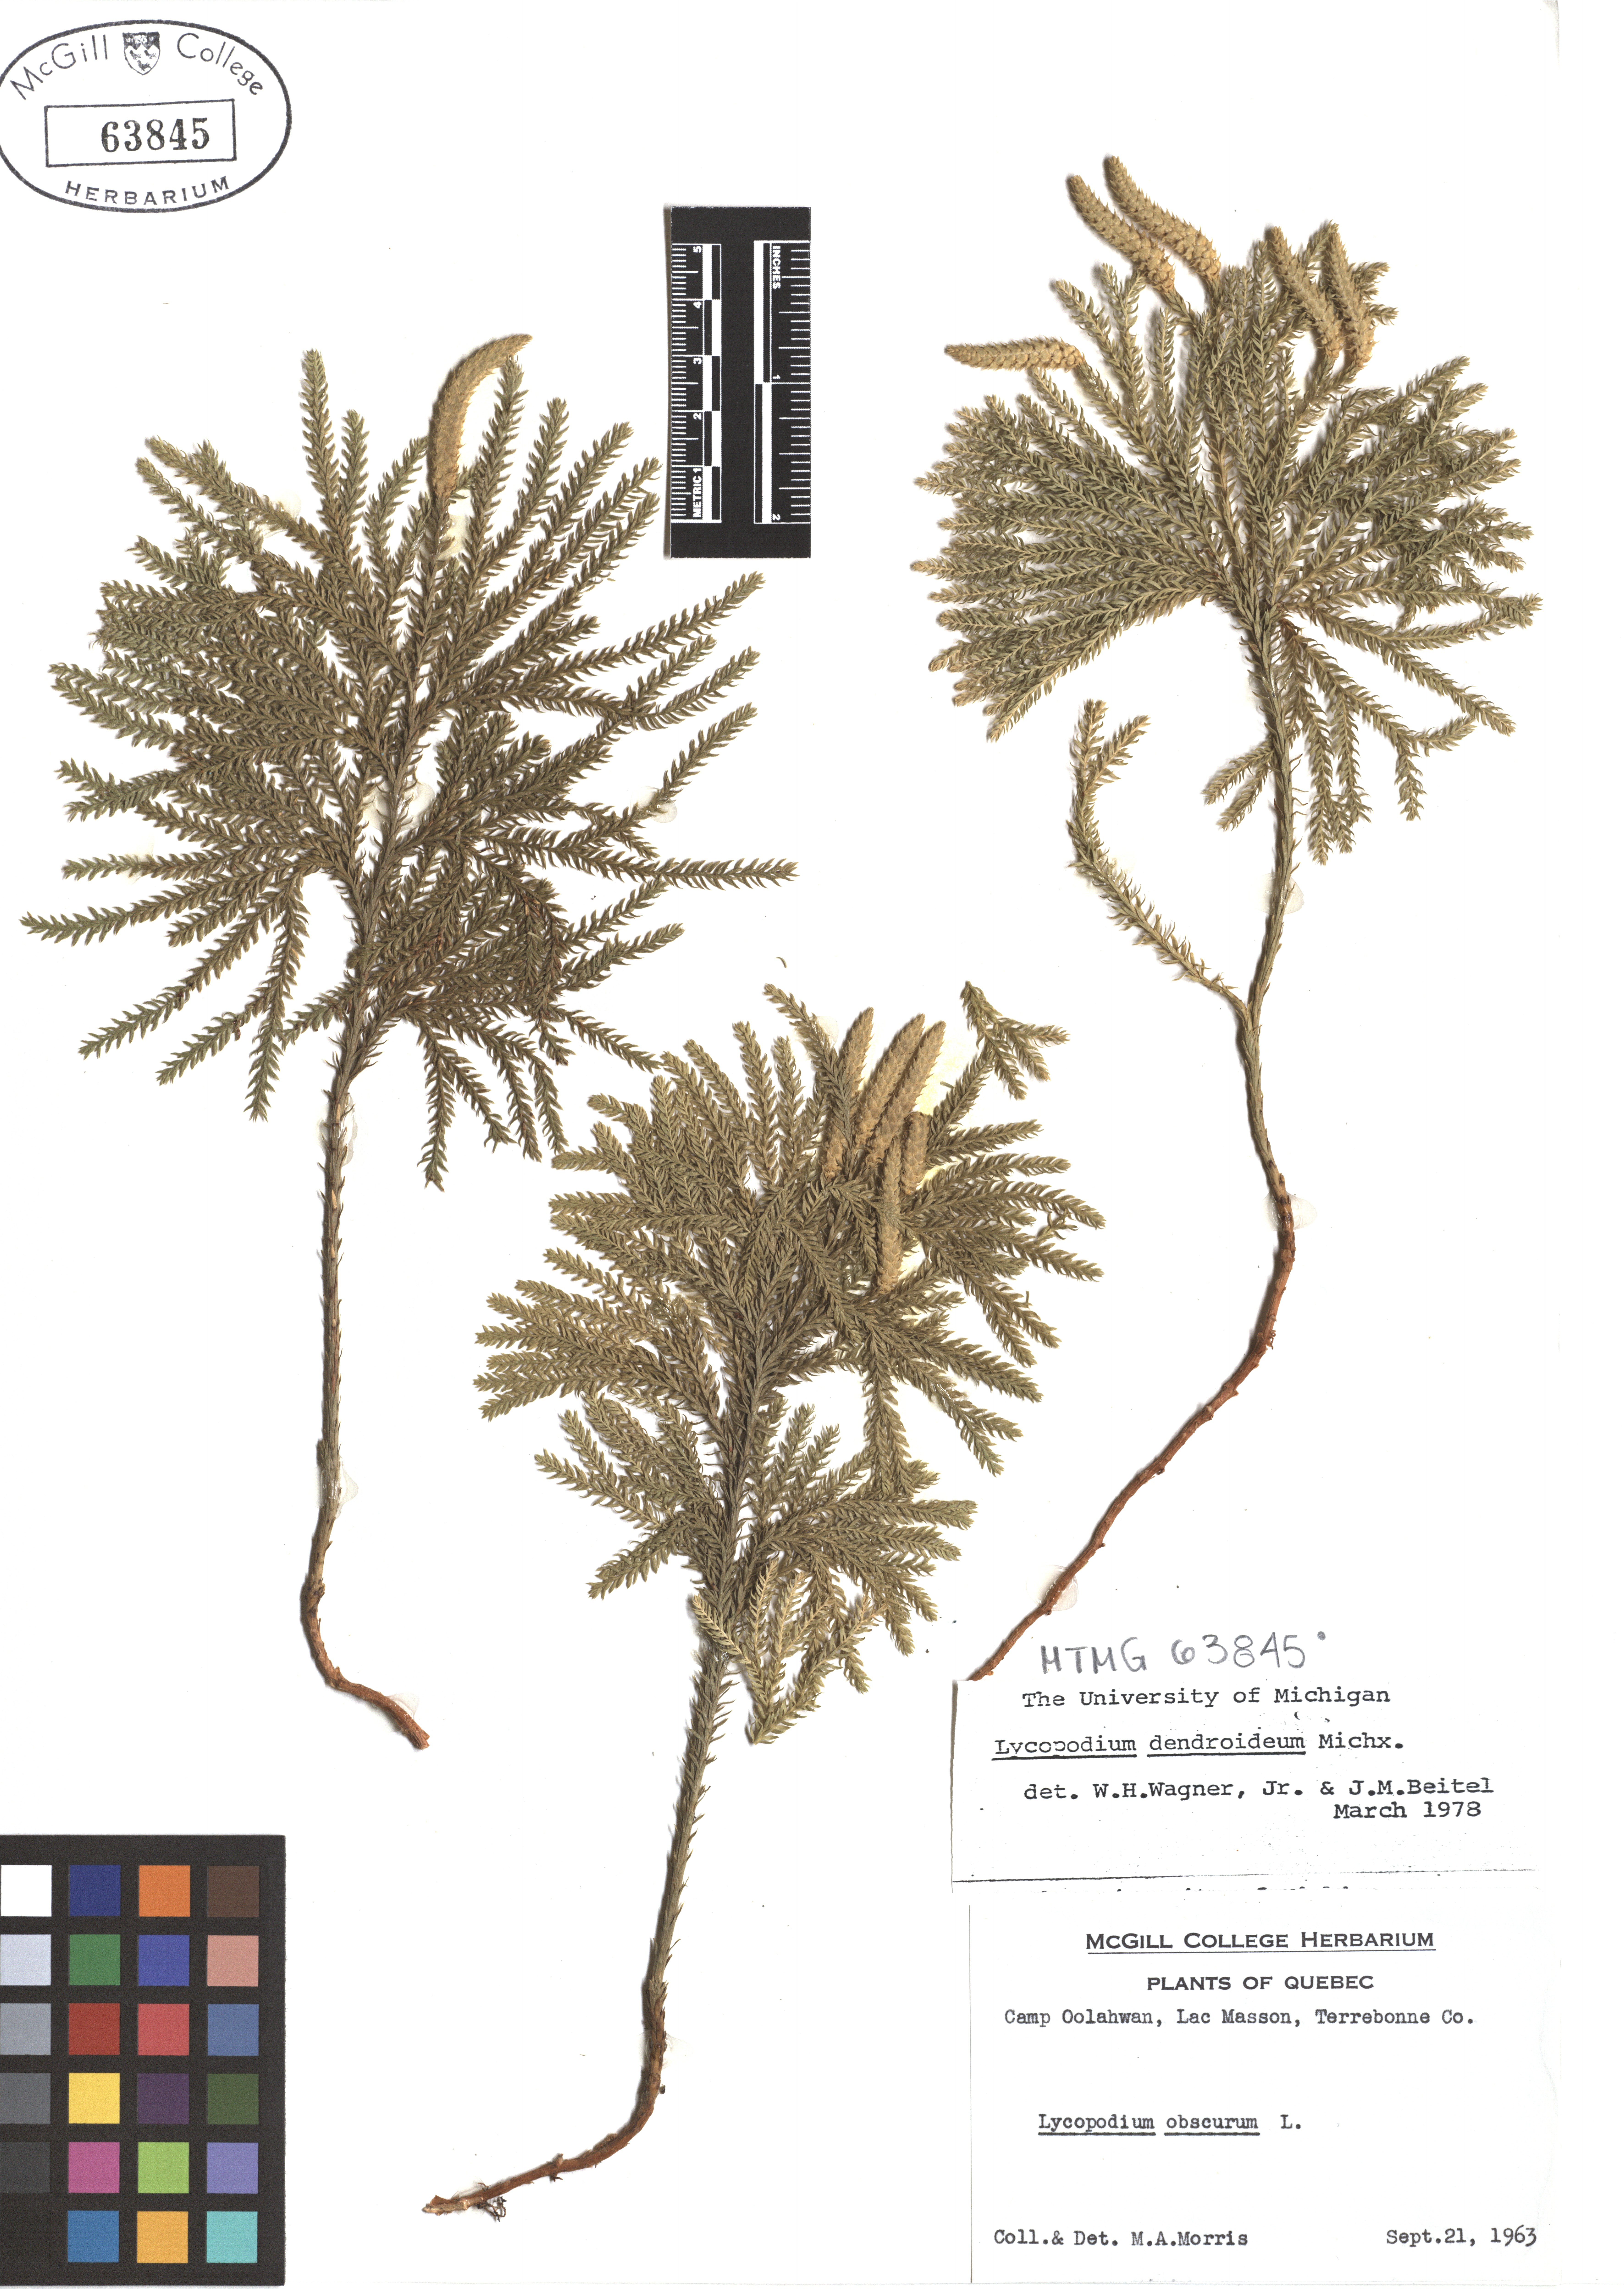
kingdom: Plantae
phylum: Tracheophyta
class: Lycopodiopsida
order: Lycopodiales
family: Lycopodiaceae
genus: Dendrolycopodium
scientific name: Dendrolycopodium dendroideum
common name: Northern tree-clubmoss
